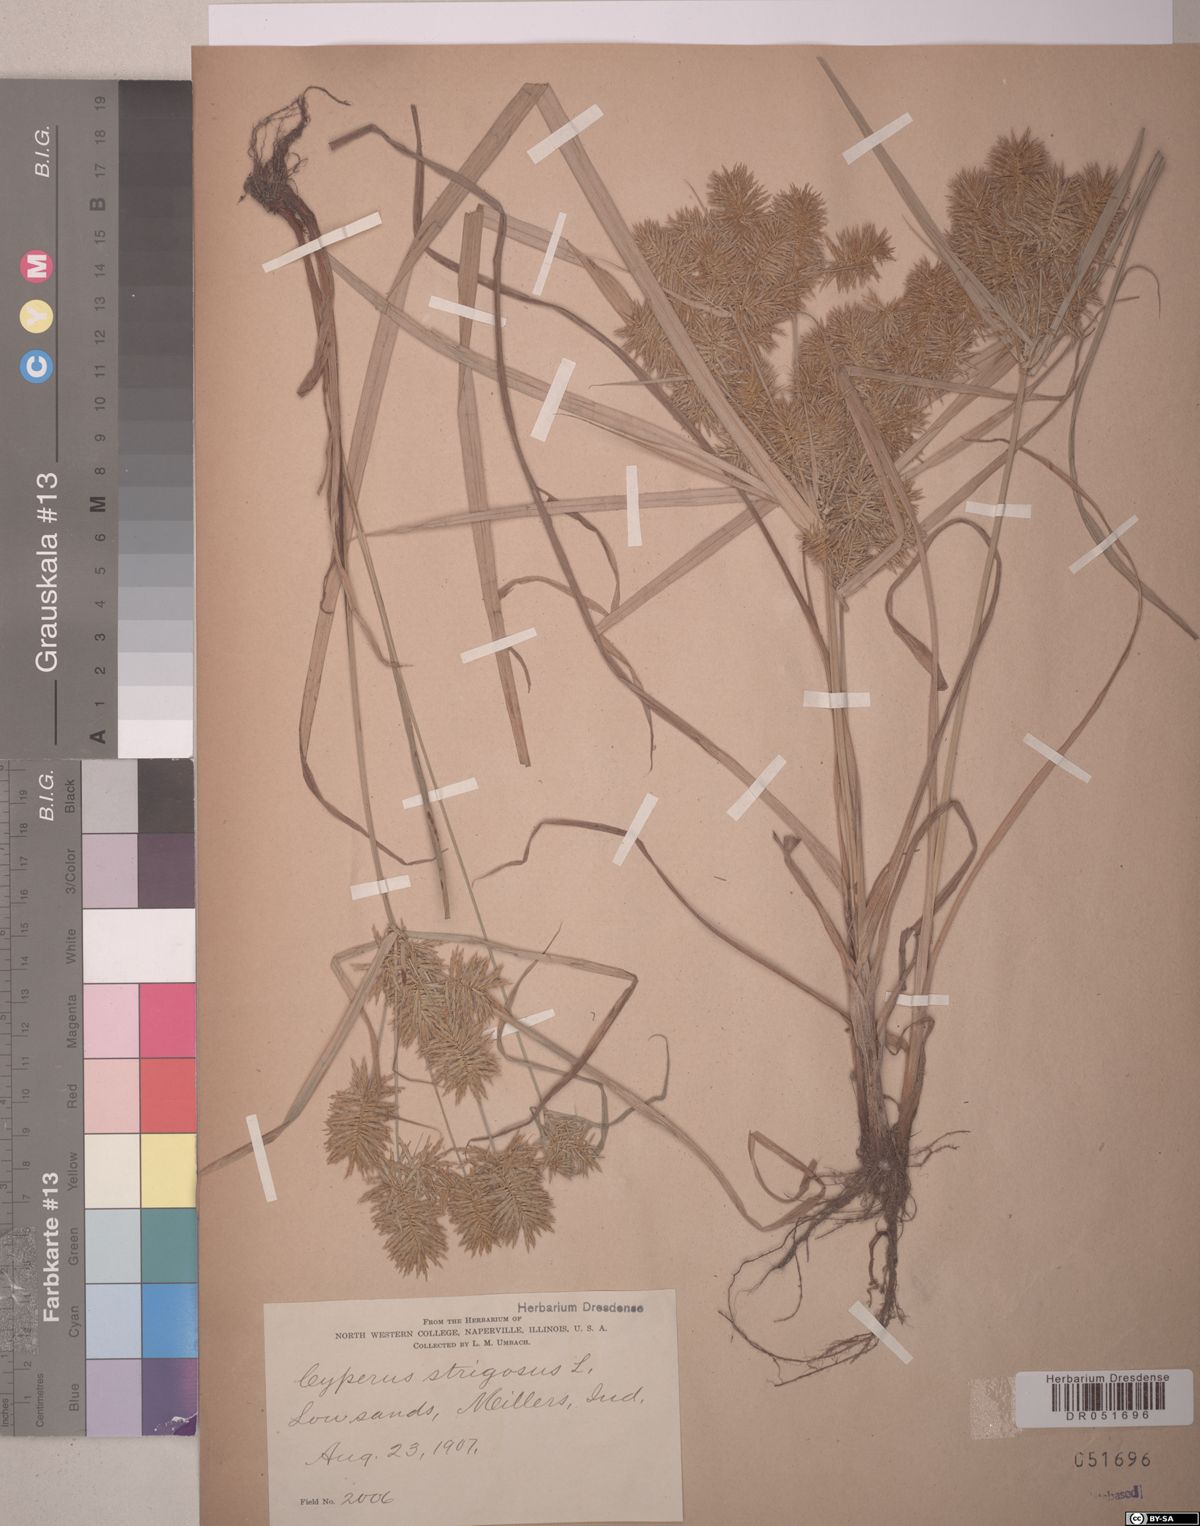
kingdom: Plantae
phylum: Tracheophyta
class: Liliopsida
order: Poales
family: Cyperaceae
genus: Cyperus
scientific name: Cyperus strigosus
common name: False nutsedge
